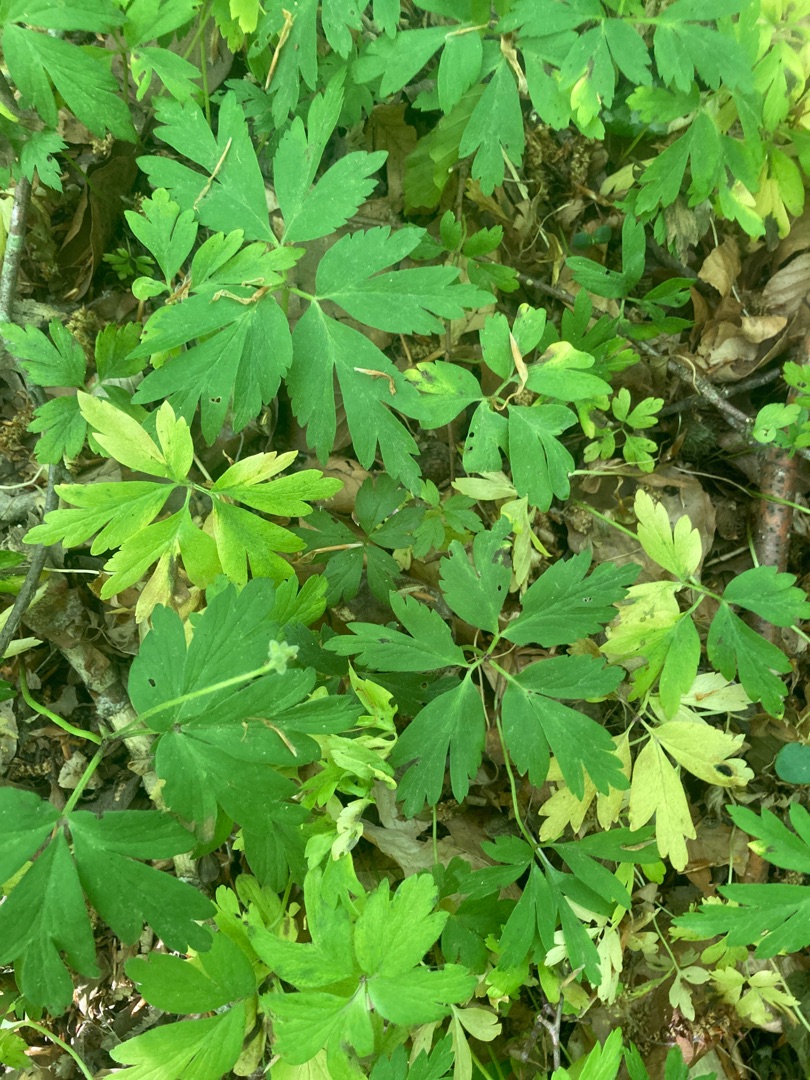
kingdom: Plantae
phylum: Tracheophyta
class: Magnoliopsida
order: Ranunculales
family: Ranunculaceae
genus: Anemone
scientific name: Anemone nemorosa
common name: Hvid anemone
